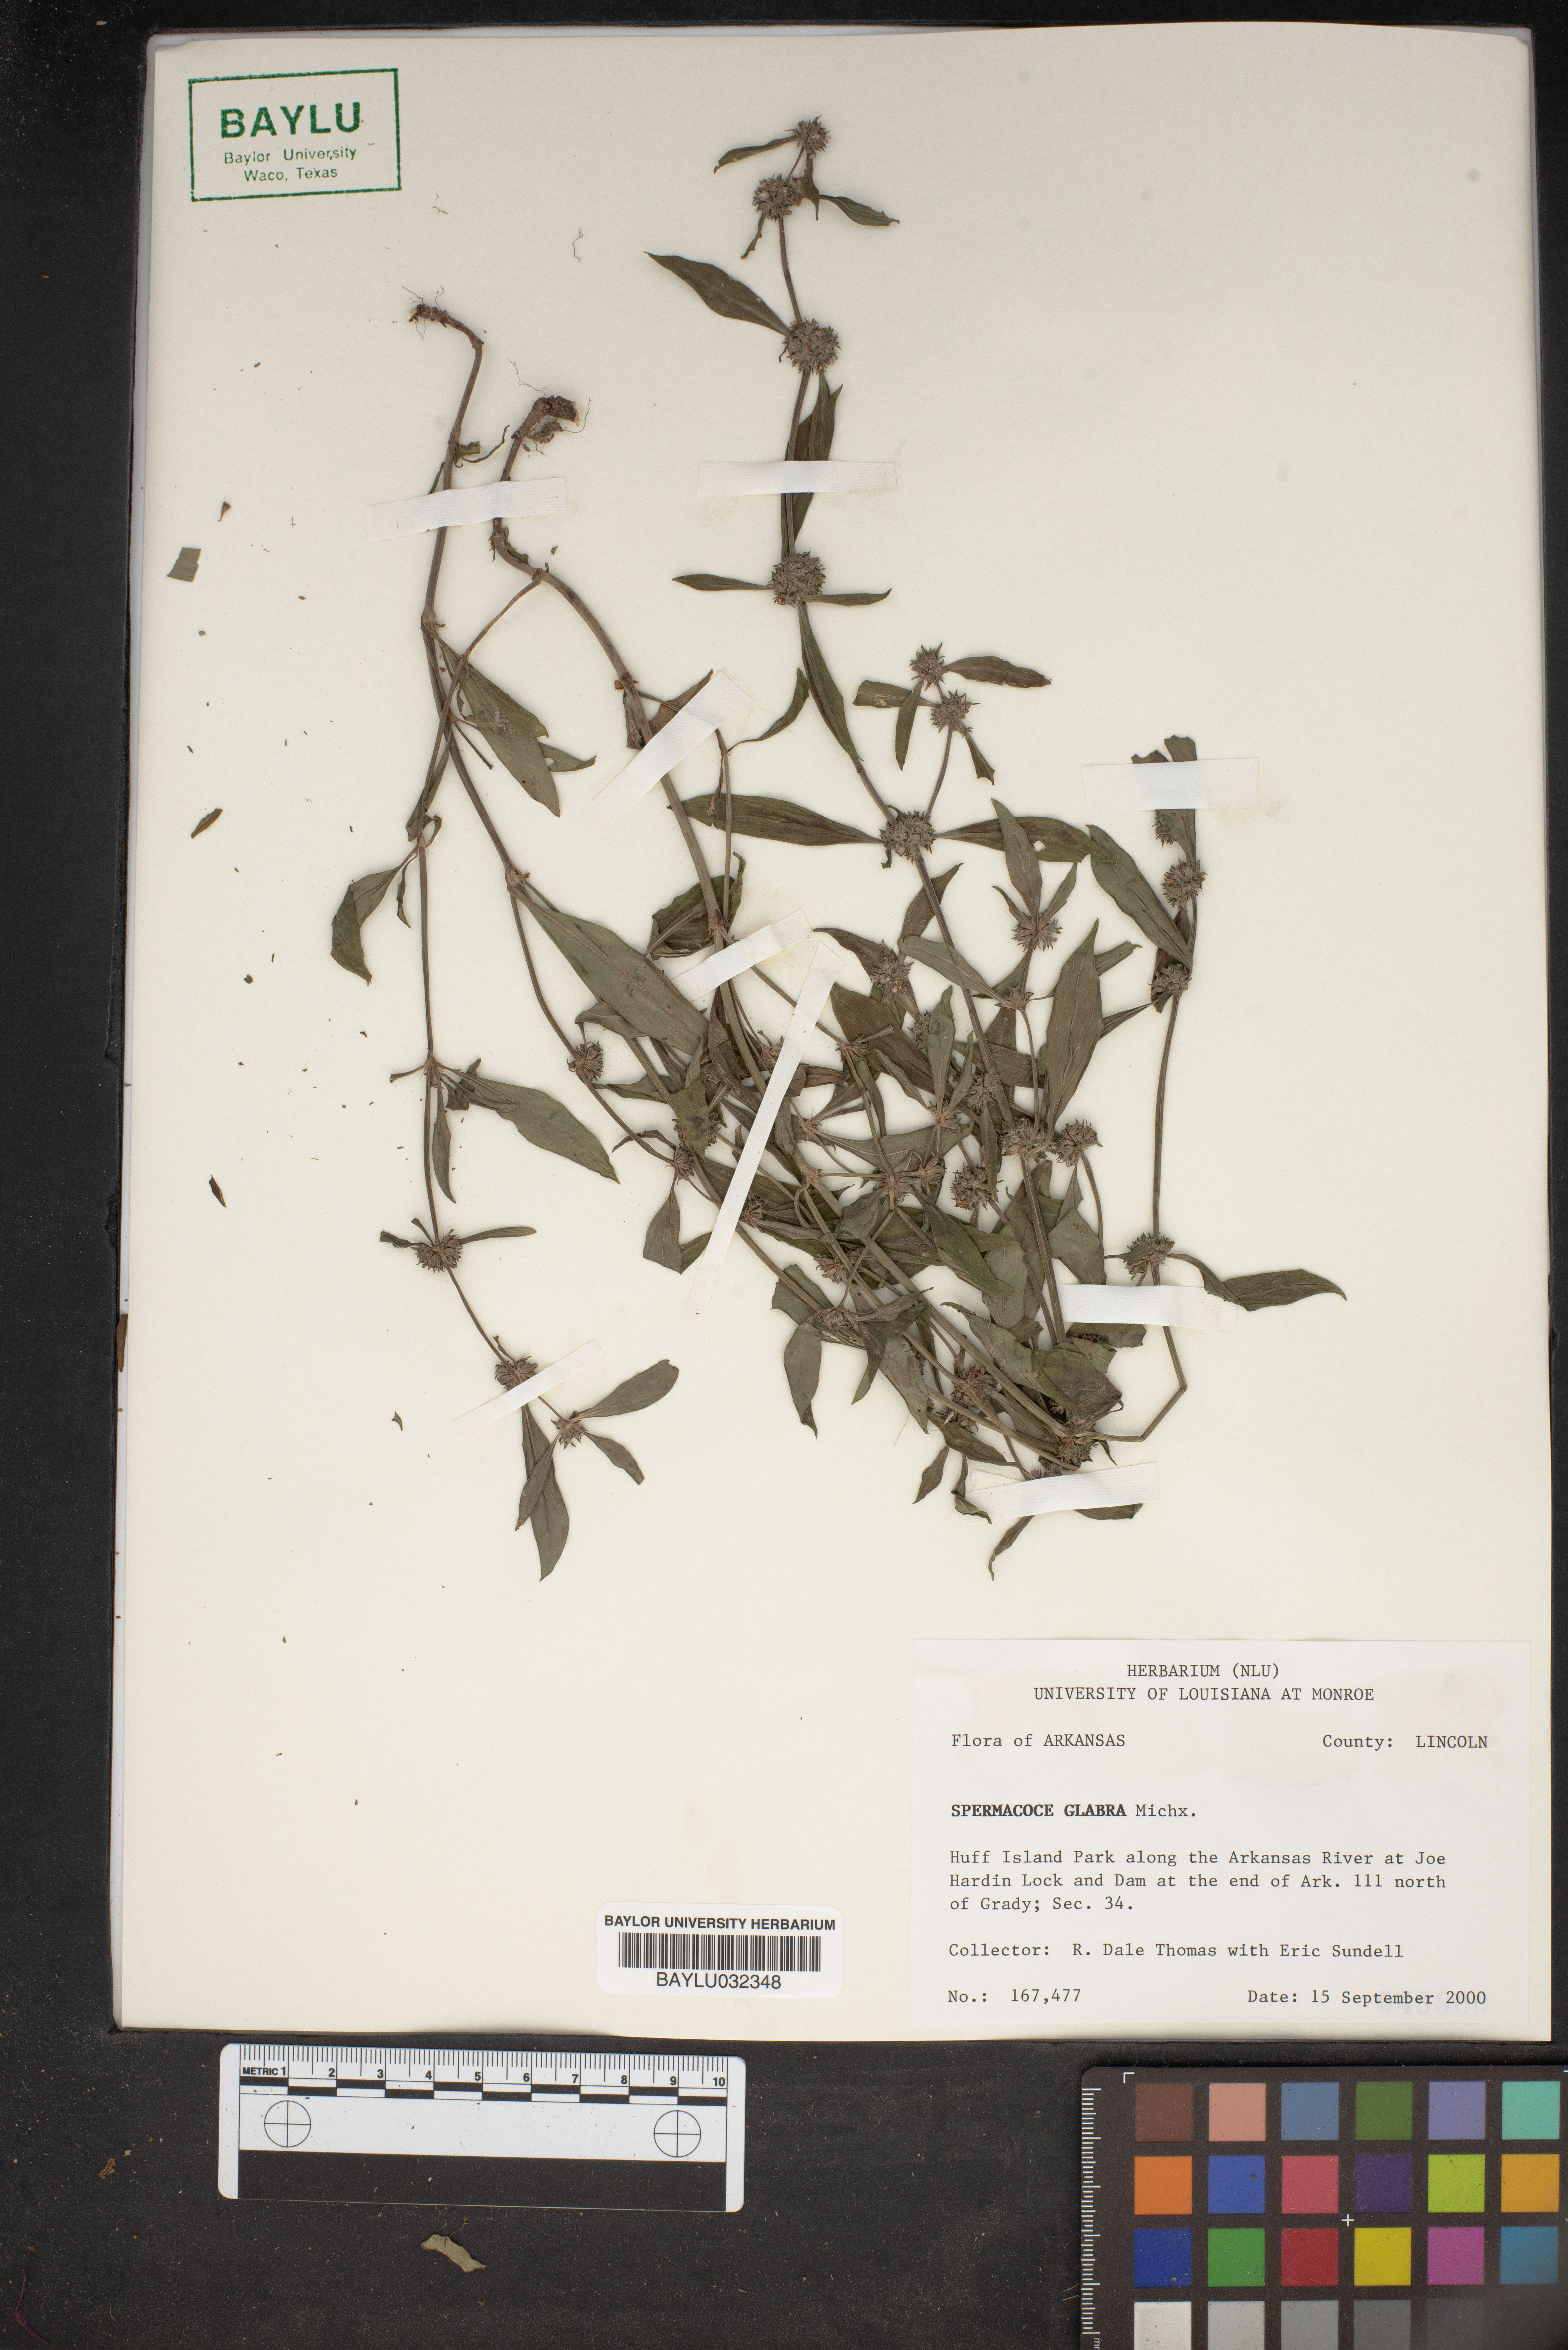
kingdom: Plantae
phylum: Tracheophyta
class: Magnoliopsida
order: Gentianales
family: Rubiaceae
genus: Spermacoce
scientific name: Spermacoce glabra
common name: Smooth buttonweed
